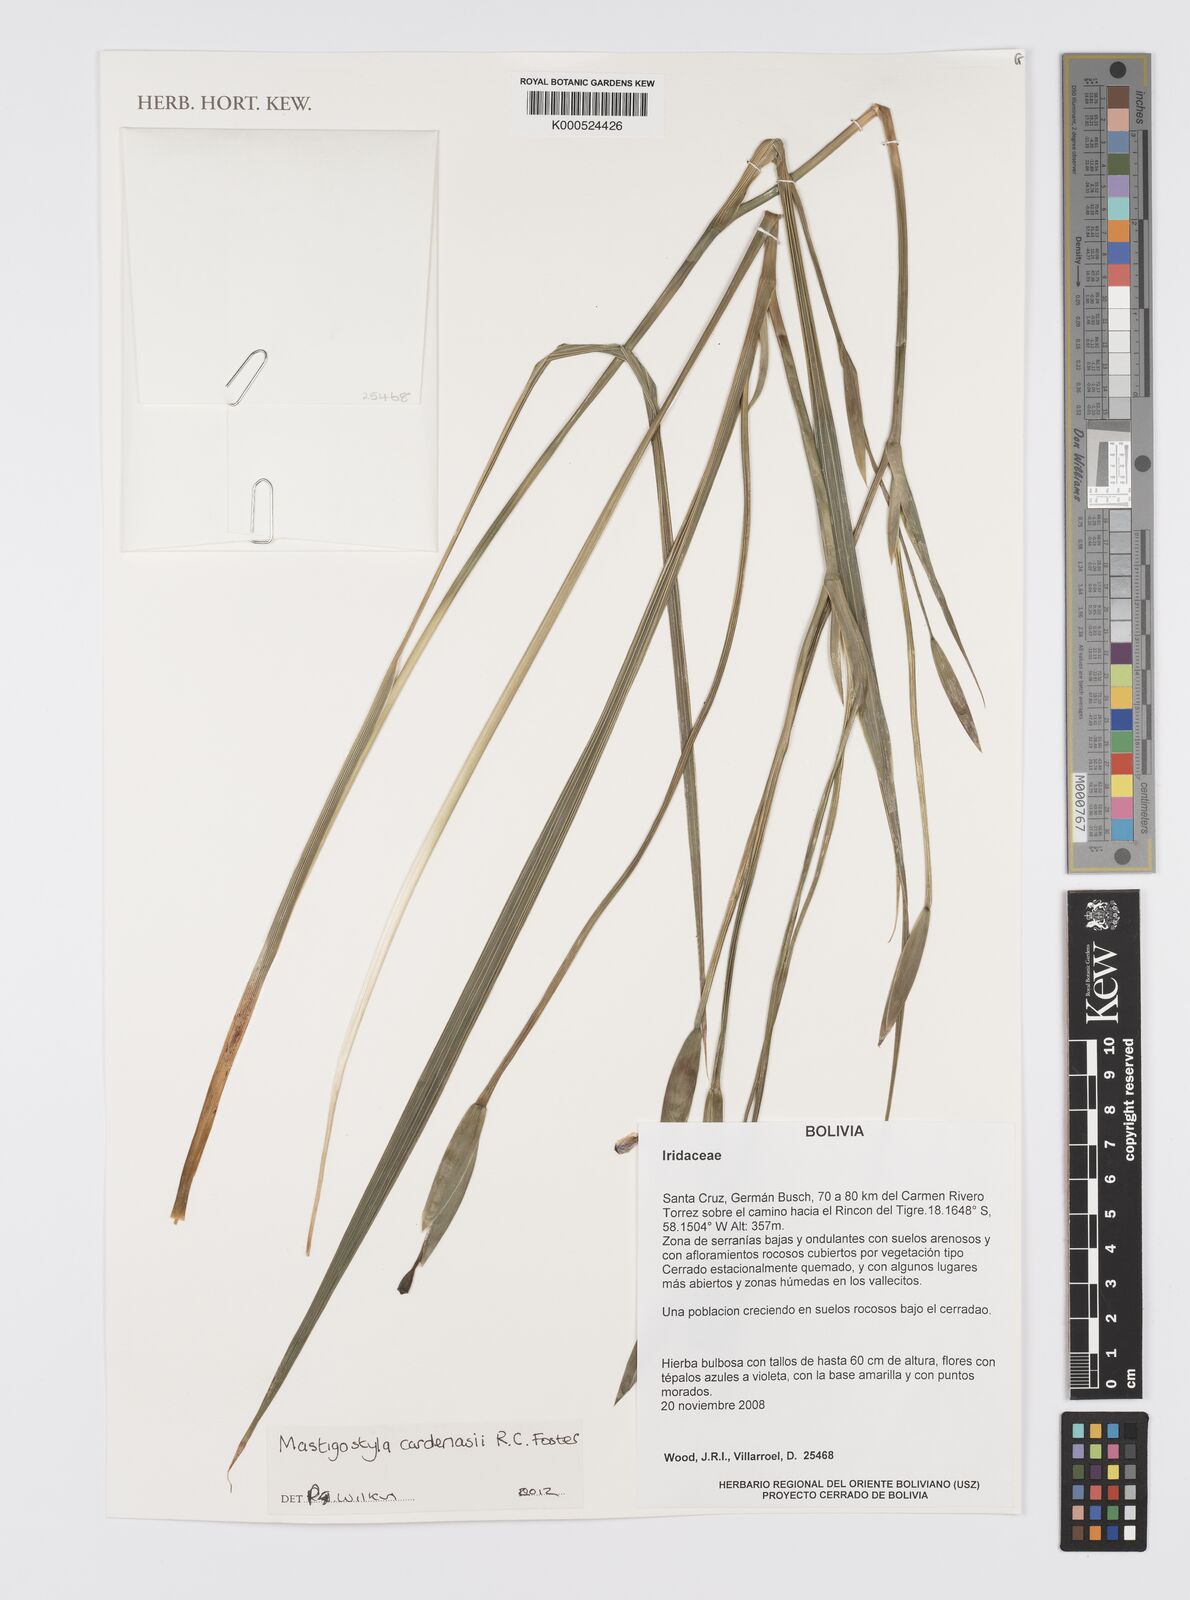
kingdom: Plantae
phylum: Tracheophyta
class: Liliopsida
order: Asparagales
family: Iridaceae
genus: Mastigostyla
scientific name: Mastigostyla cardenasii
